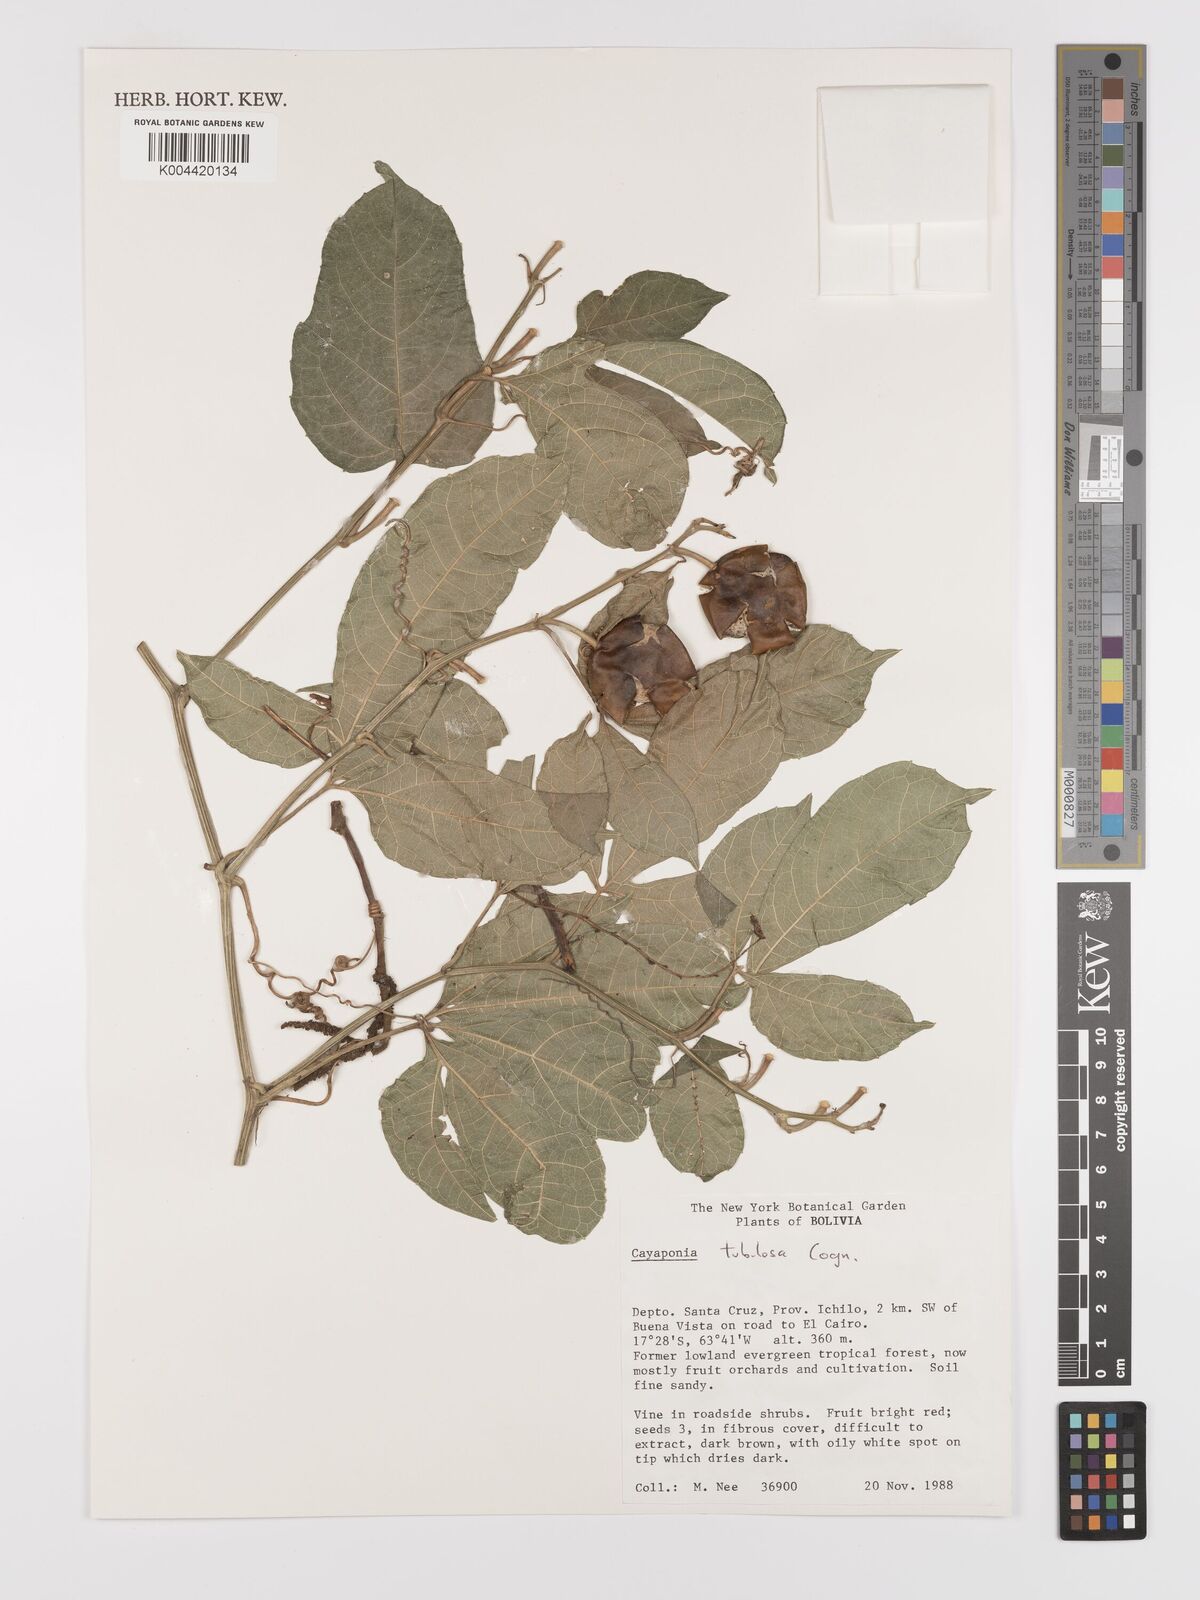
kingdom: Plantae
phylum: Tracheophyta
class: Magnoliopsida
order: Cucurbitales
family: Cucurbitaceae
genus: Cayaponia
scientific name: Cayaponia tubulosa
